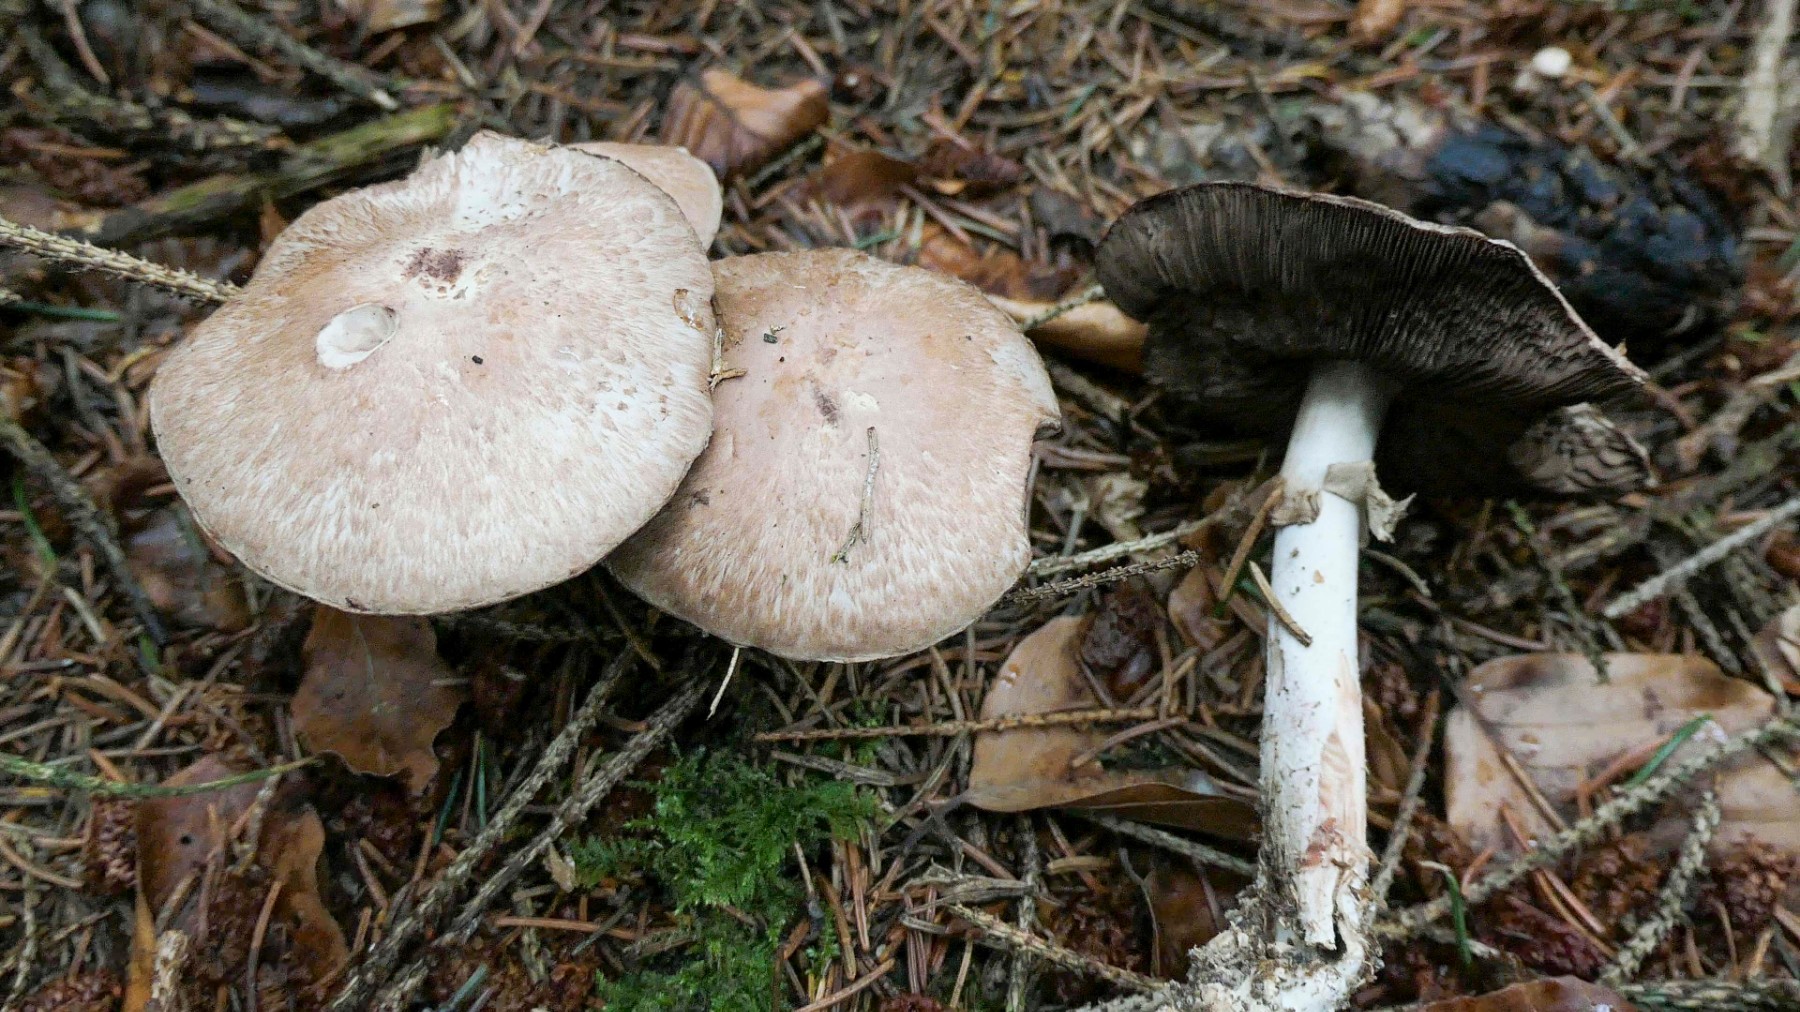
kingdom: Fungi
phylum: Basidiomycota
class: Agaricomycetes
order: Agaricales
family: Agaricaceae
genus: Agaricus
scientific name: Agaricus sylvaticus
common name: lille blod-champignon
